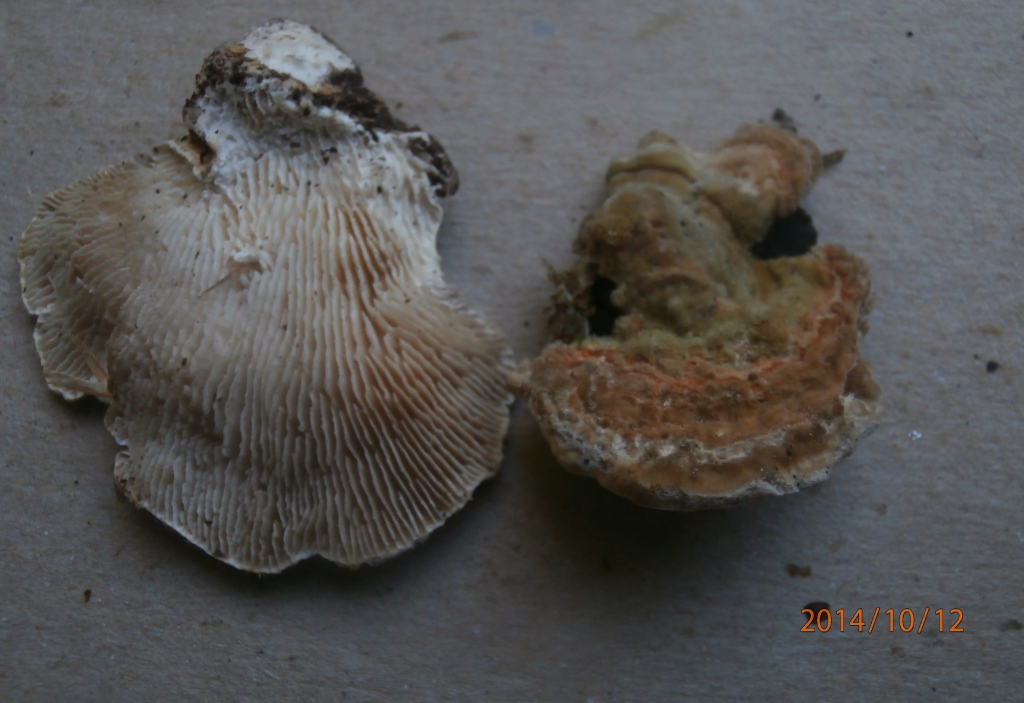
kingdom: Fungi
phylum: Basidiomycota
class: Agaricomycetes
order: Polyporales
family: Polyporaceae
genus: Lenzites
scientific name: Lenzites betulinus
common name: birke-læderporesvamp
